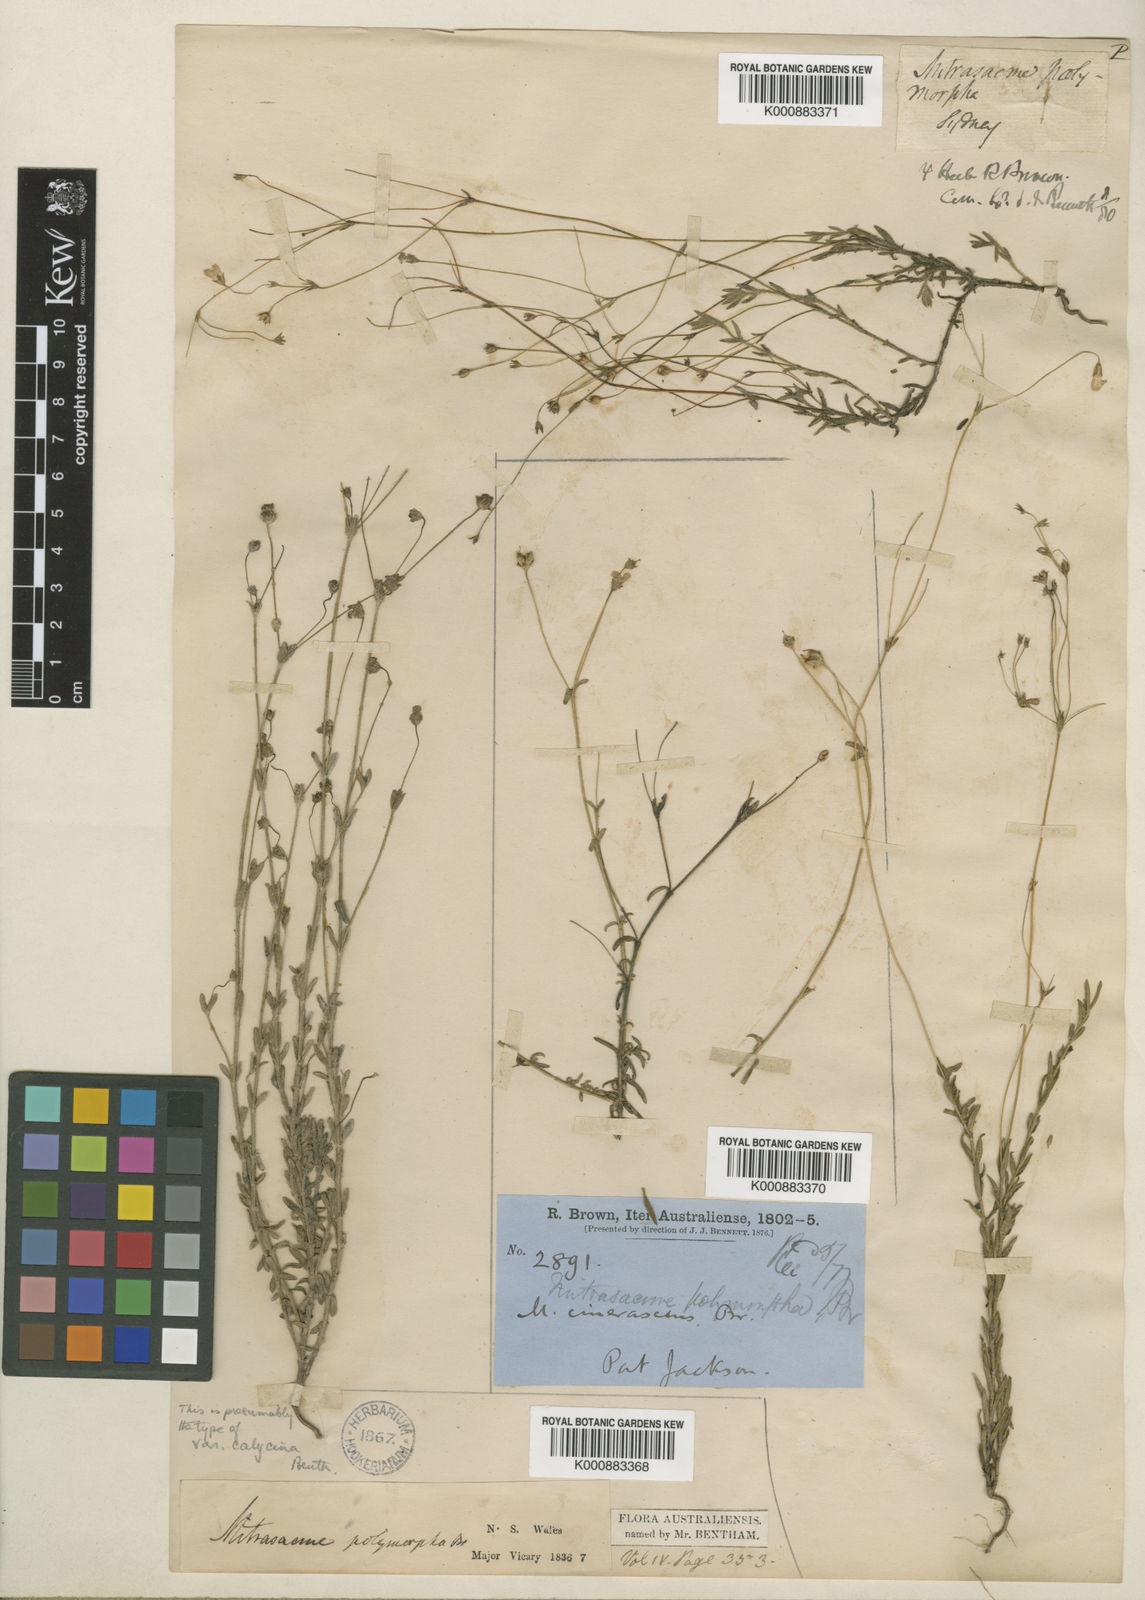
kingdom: Plantae
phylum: Tracheophyta
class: Magnoliopsida
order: Gentianales
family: Loganiaceae
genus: Mitrasacme
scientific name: Mitrasacme polymorpha
